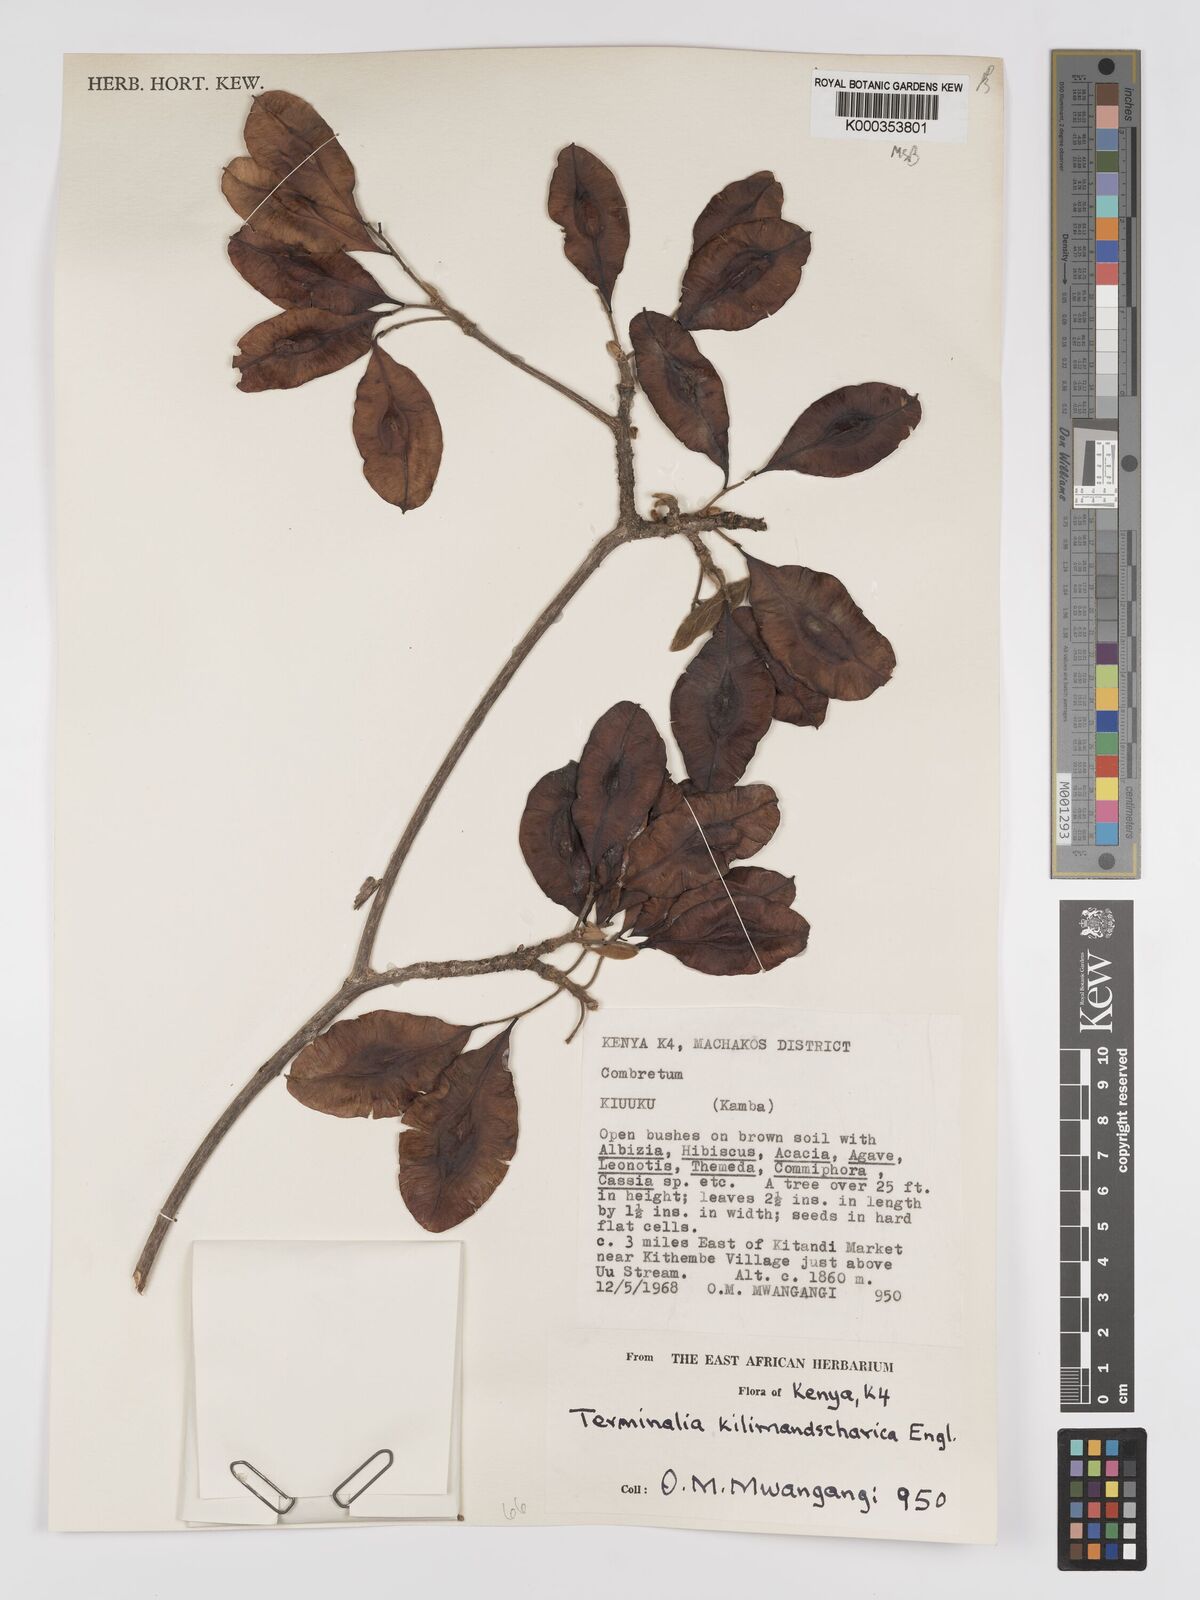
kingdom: Plantae
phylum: Tracheophyta
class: Magnoliopsida
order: Myrtales
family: Combretaceae
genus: Terminalia
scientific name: Terminalia kilimandscharica
